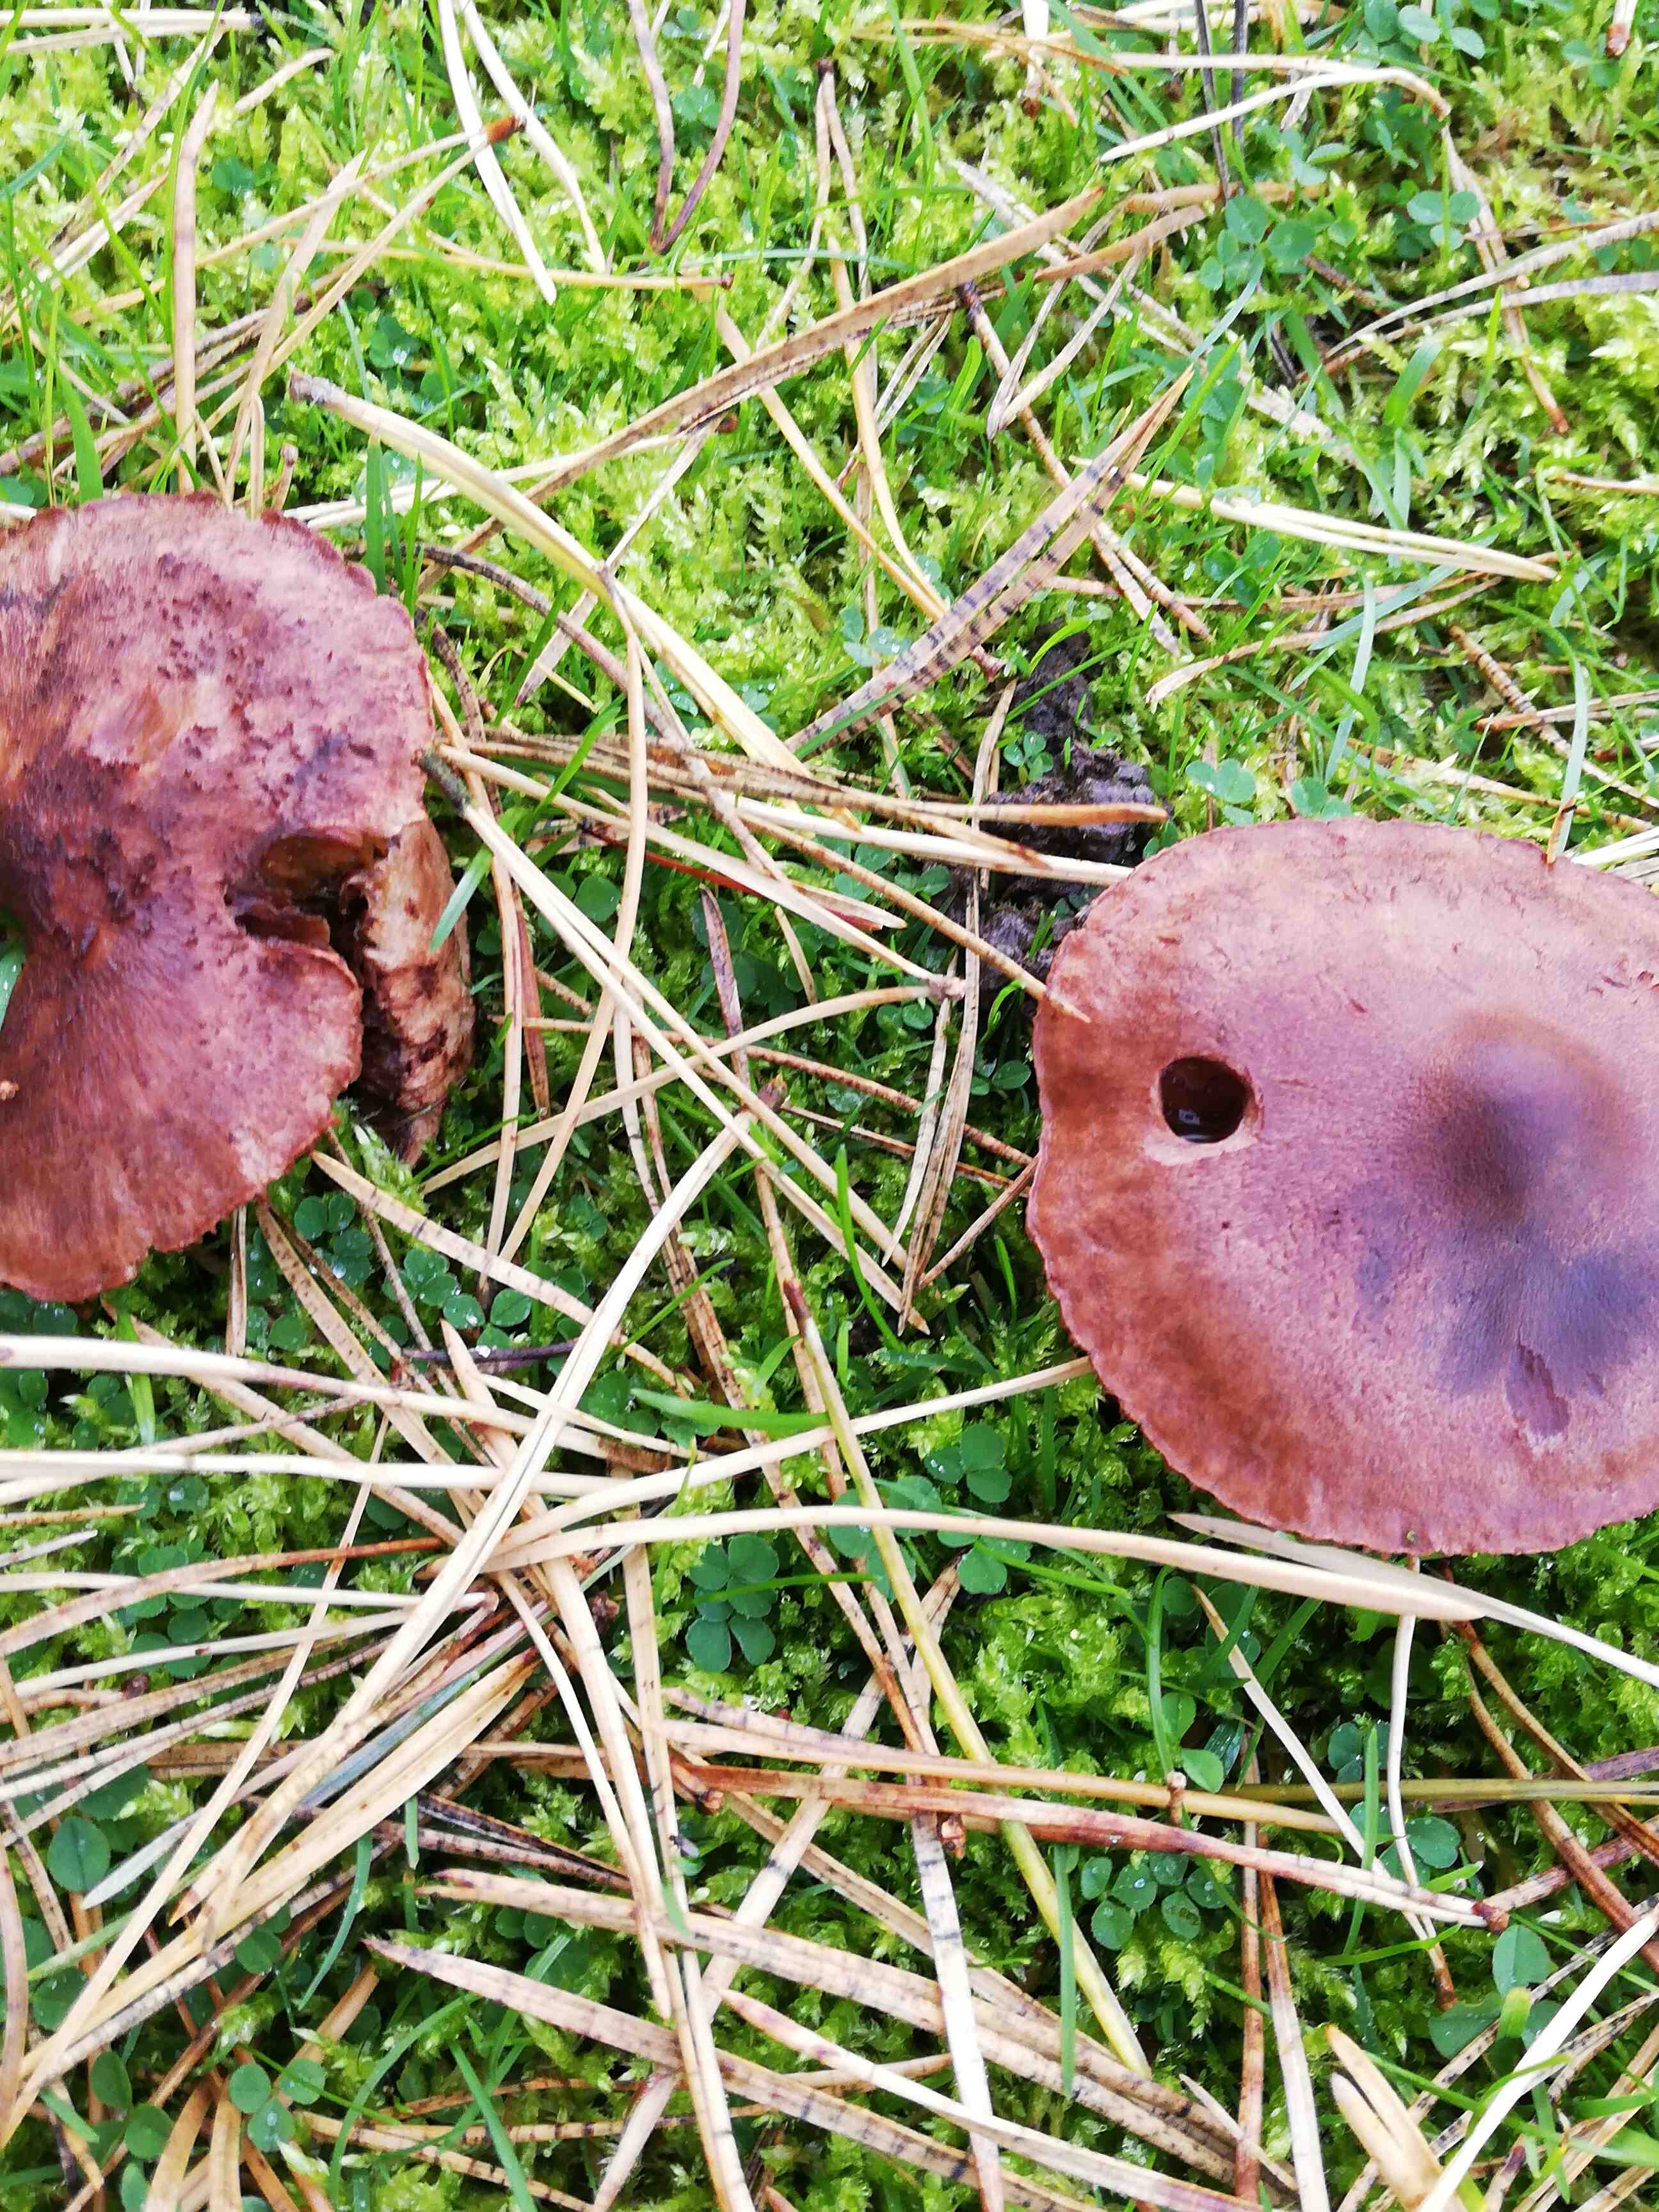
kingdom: Fungi
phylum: Basidiomycota
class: Agaricomycetes
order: Agaricales
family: Tricholomataceae
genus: Tricholoma
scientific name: Tricholoma
